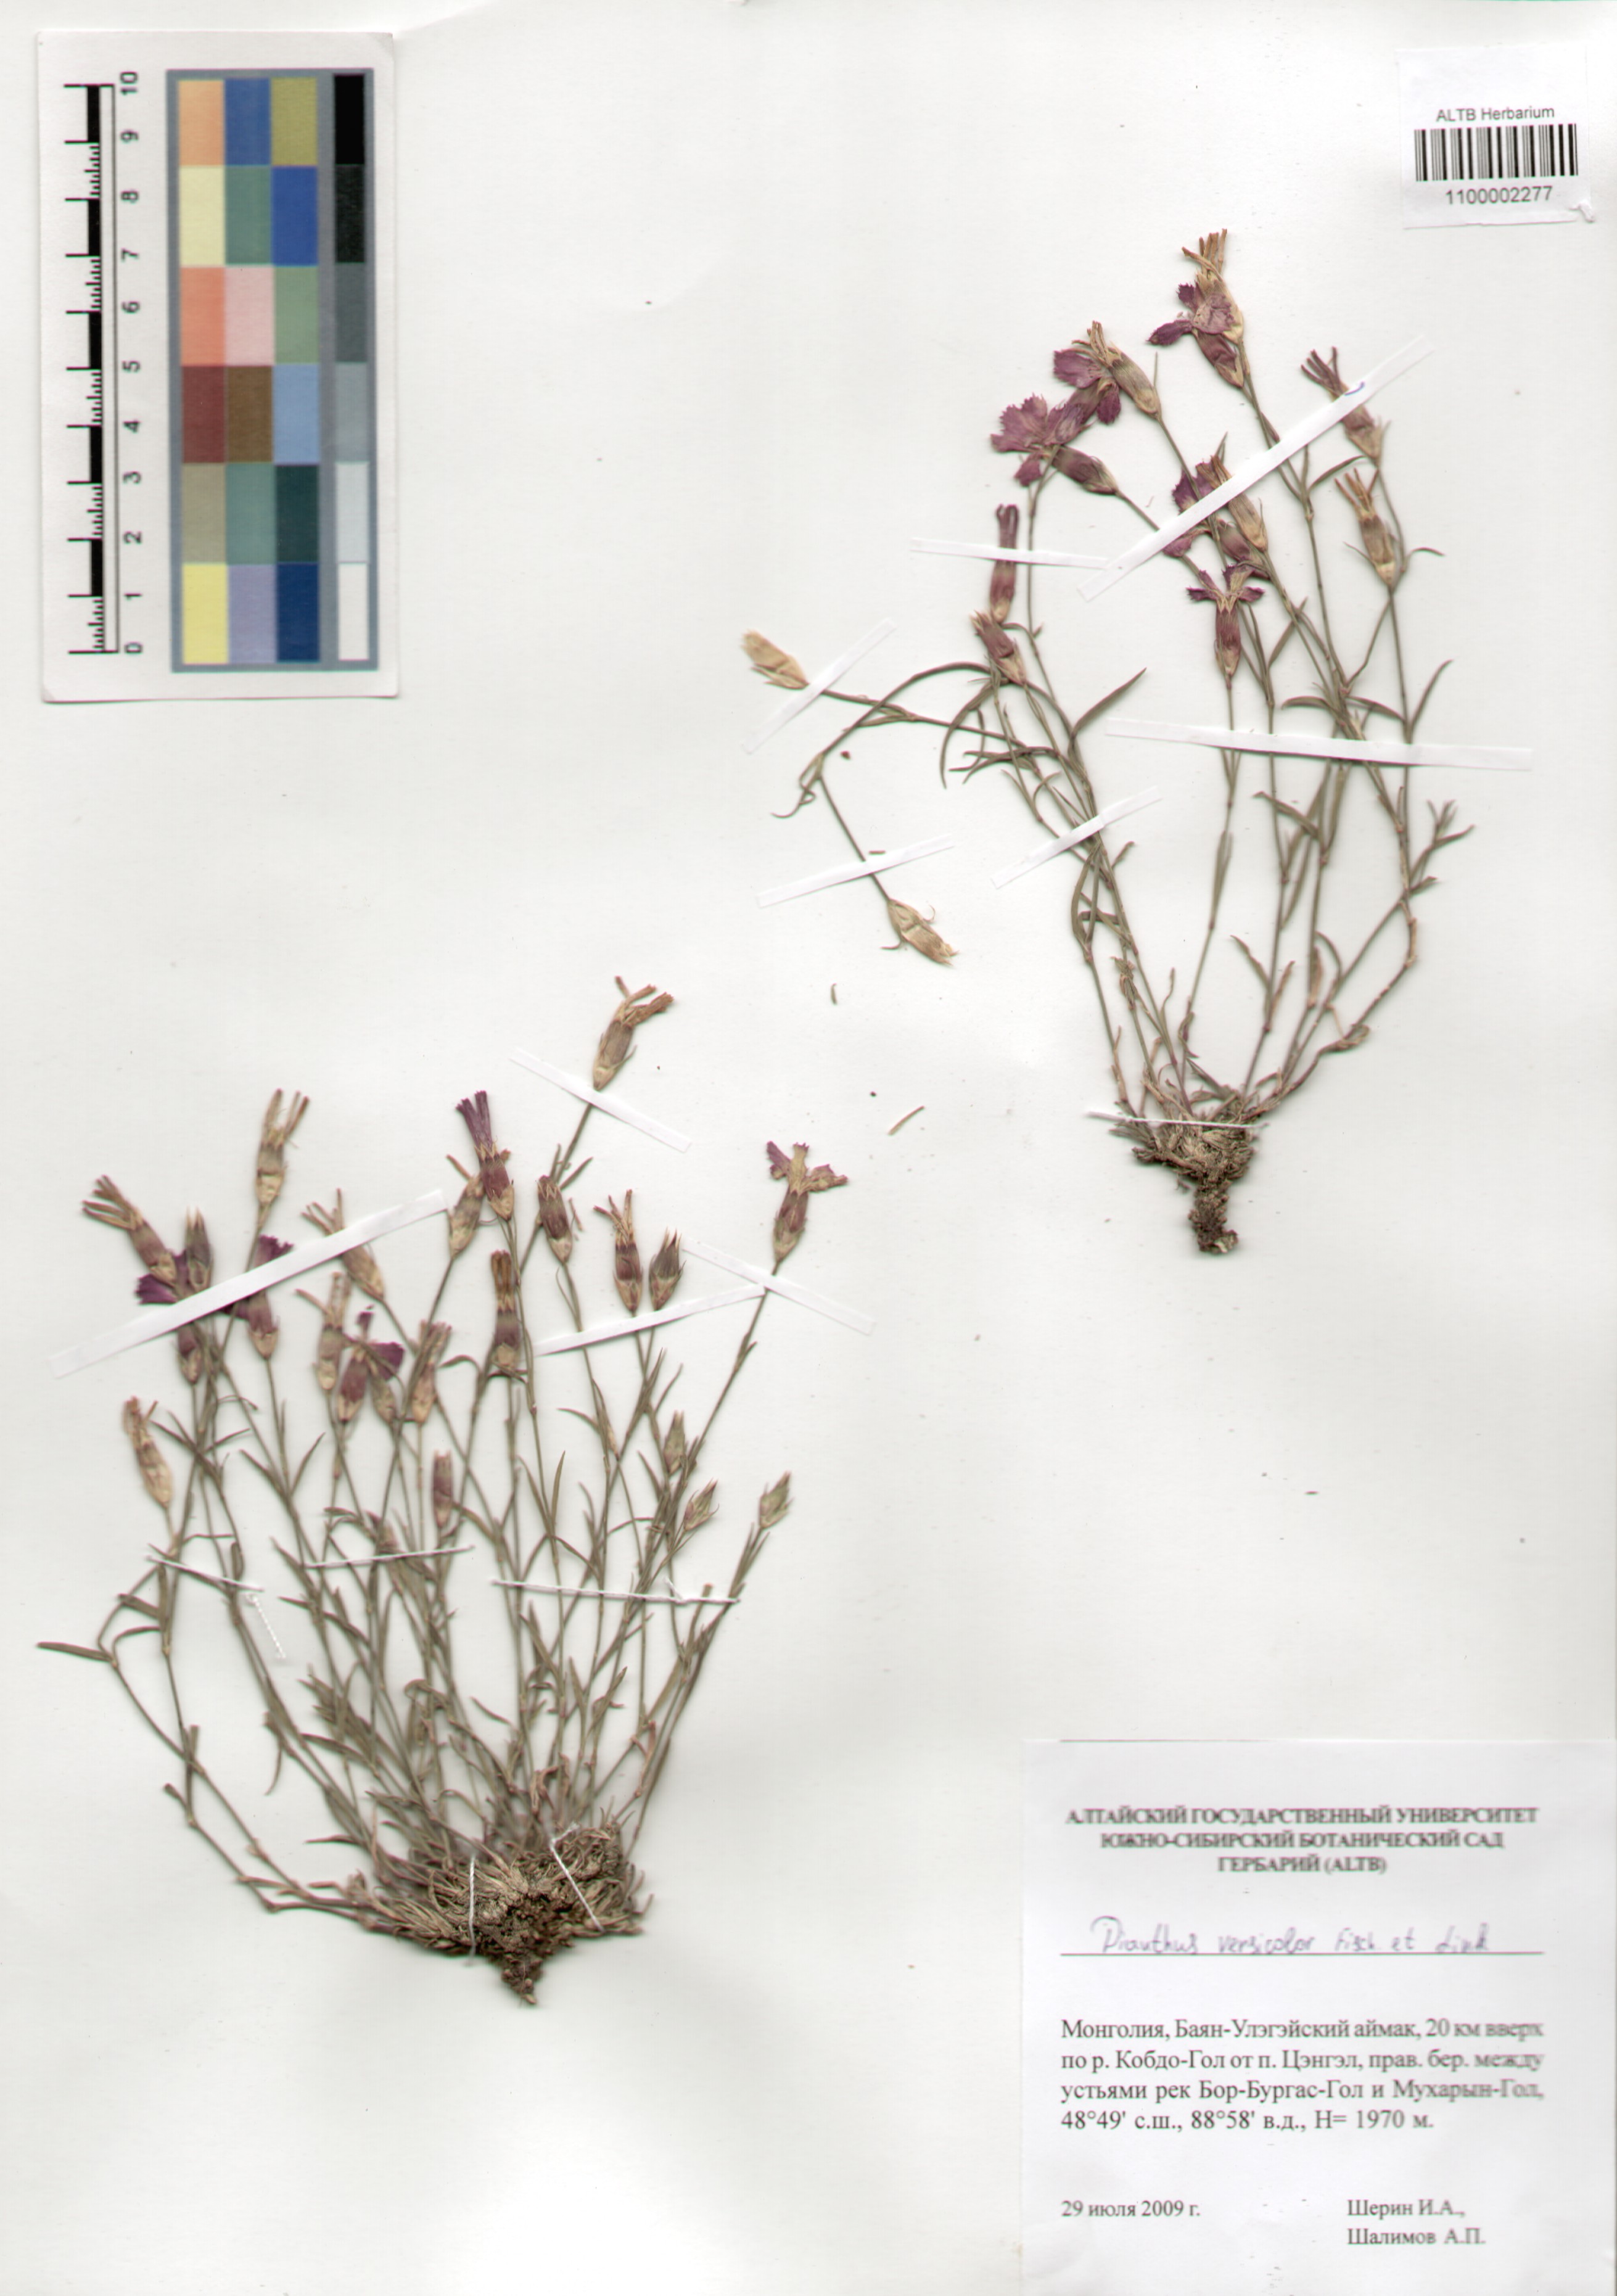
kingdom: Plantae
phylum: Tracheophyta
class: Magnoliopsida
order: Caryophyllales
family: Caryophyllaceae
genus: Dianthus
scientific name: Dianthus chinensis
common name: Rainbow pink
